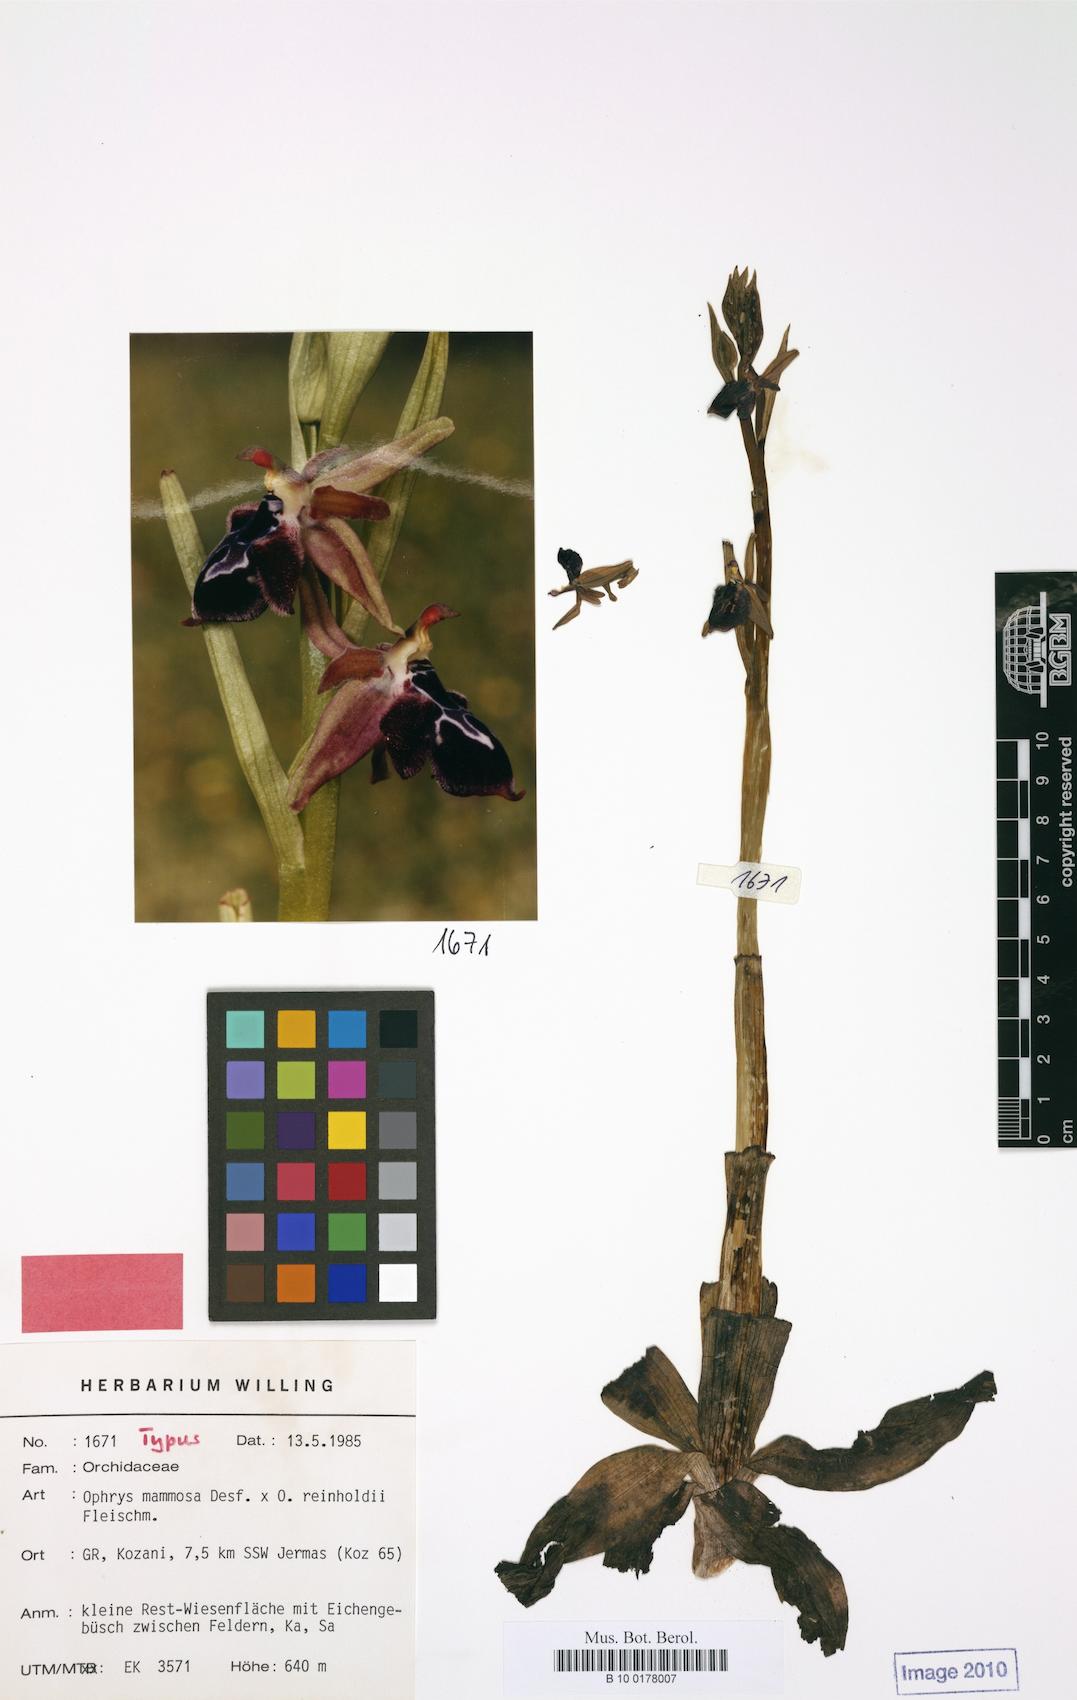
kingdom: Plantae
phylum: Tracheophyta
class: Liliopsida
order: Asparagales
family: Orchidaceae
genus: Ophrys
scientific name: Ophrys sphegodes
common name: Early spider-orchid
